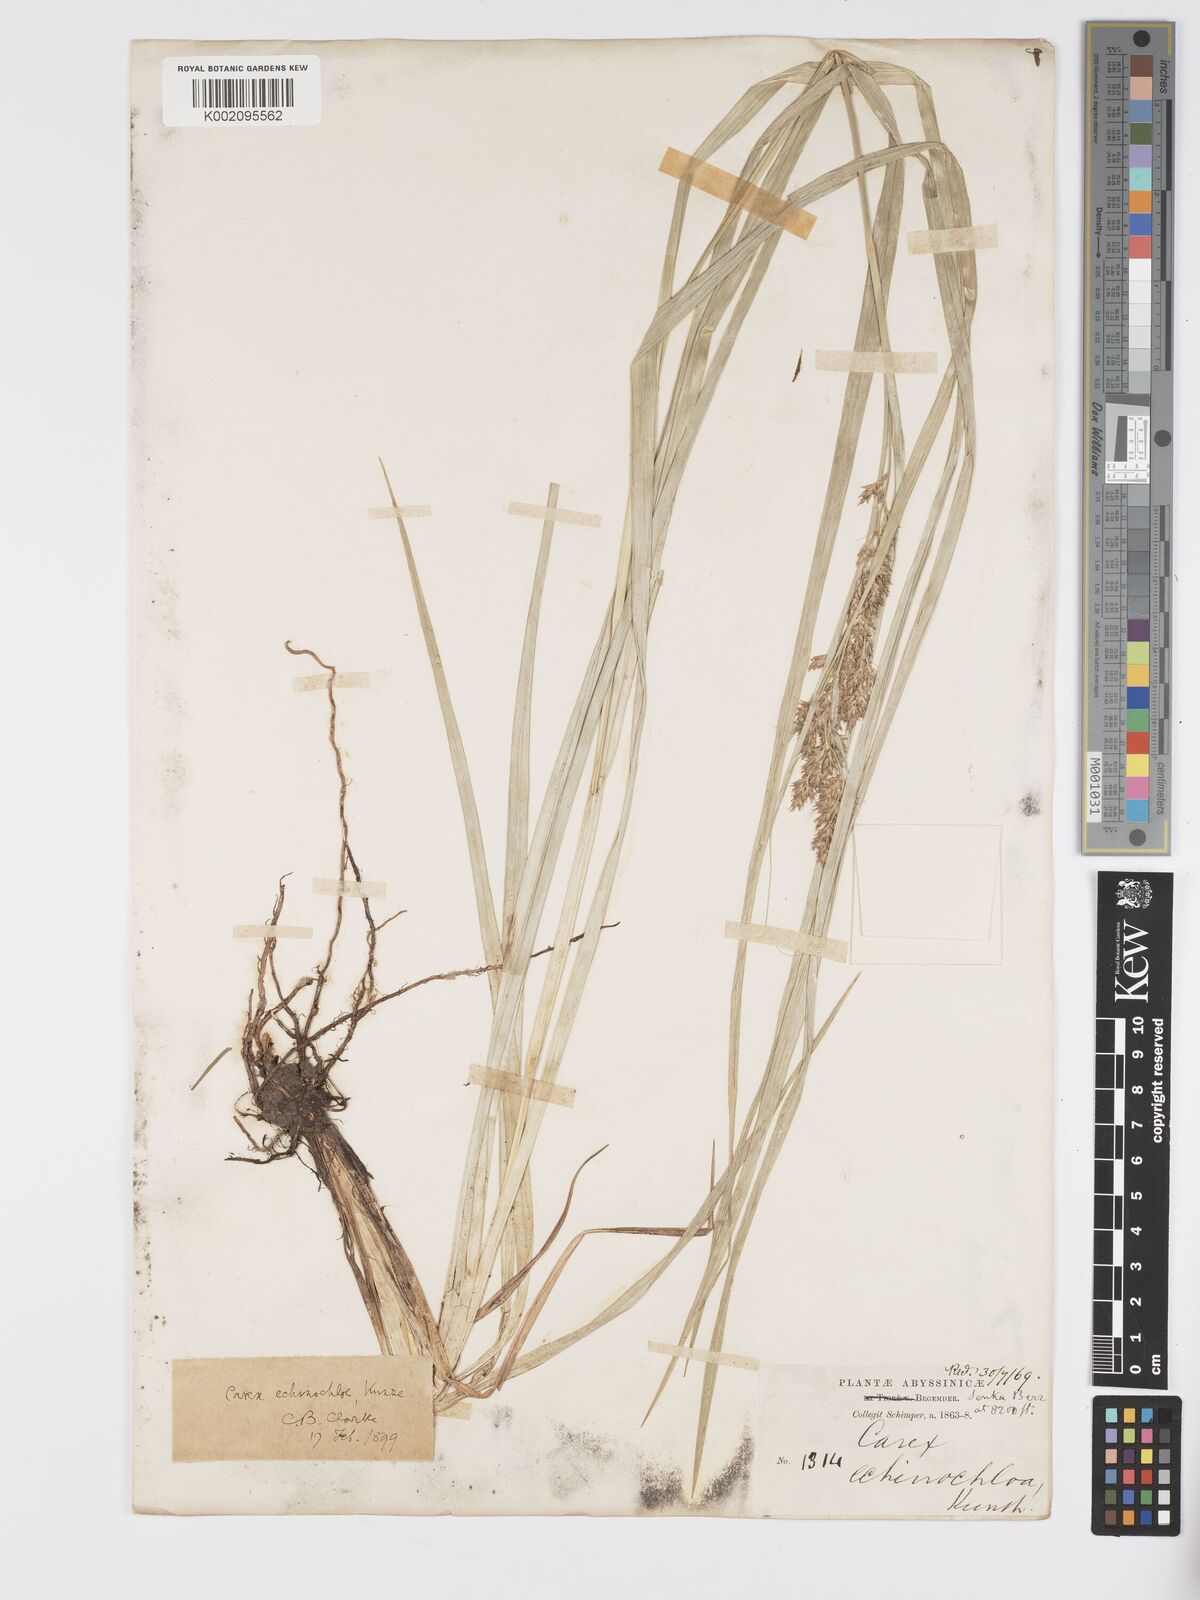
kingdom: Plantae
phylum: Tracheophyta
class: Liliopsida
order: Poales
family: Cyperaceae
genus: Carex
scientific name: Carex echinochloe
